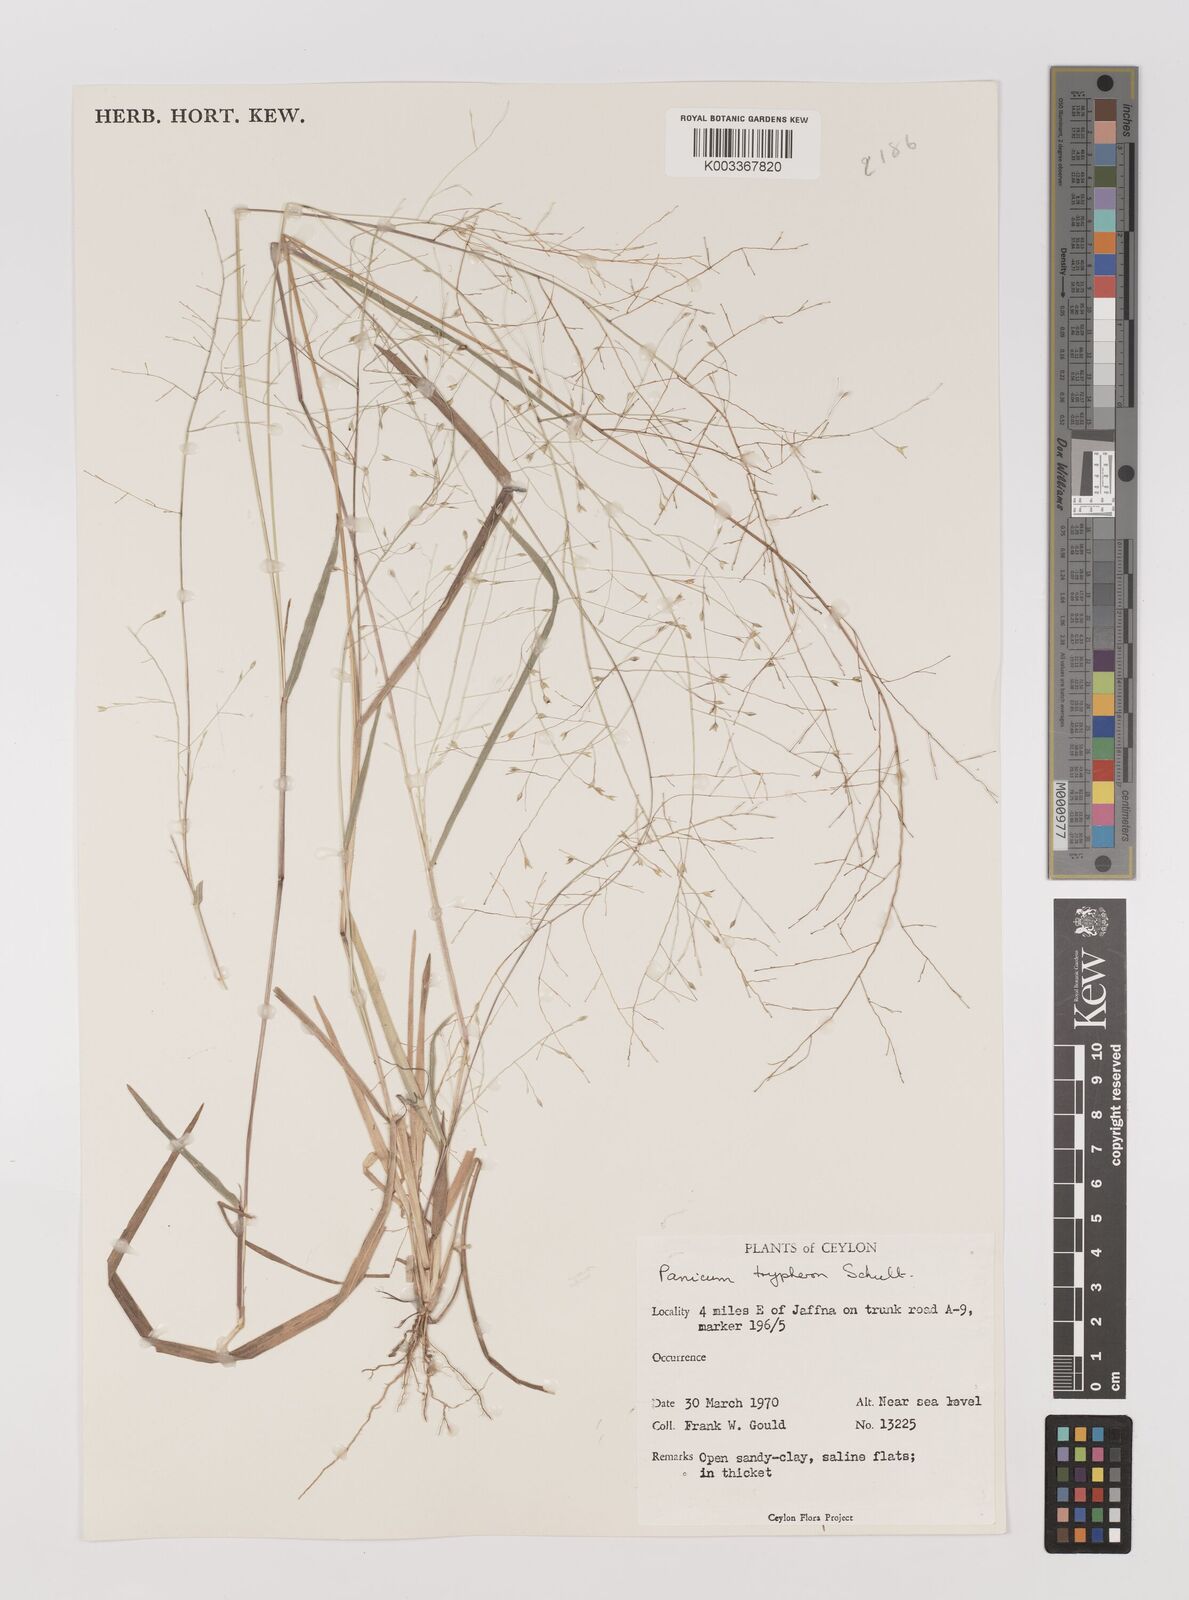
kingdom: Plantae
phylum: Tracheophyta
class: Liliopsida
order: Poales
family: Poaceae
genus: Panicum
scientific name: Panicum curviflorum
